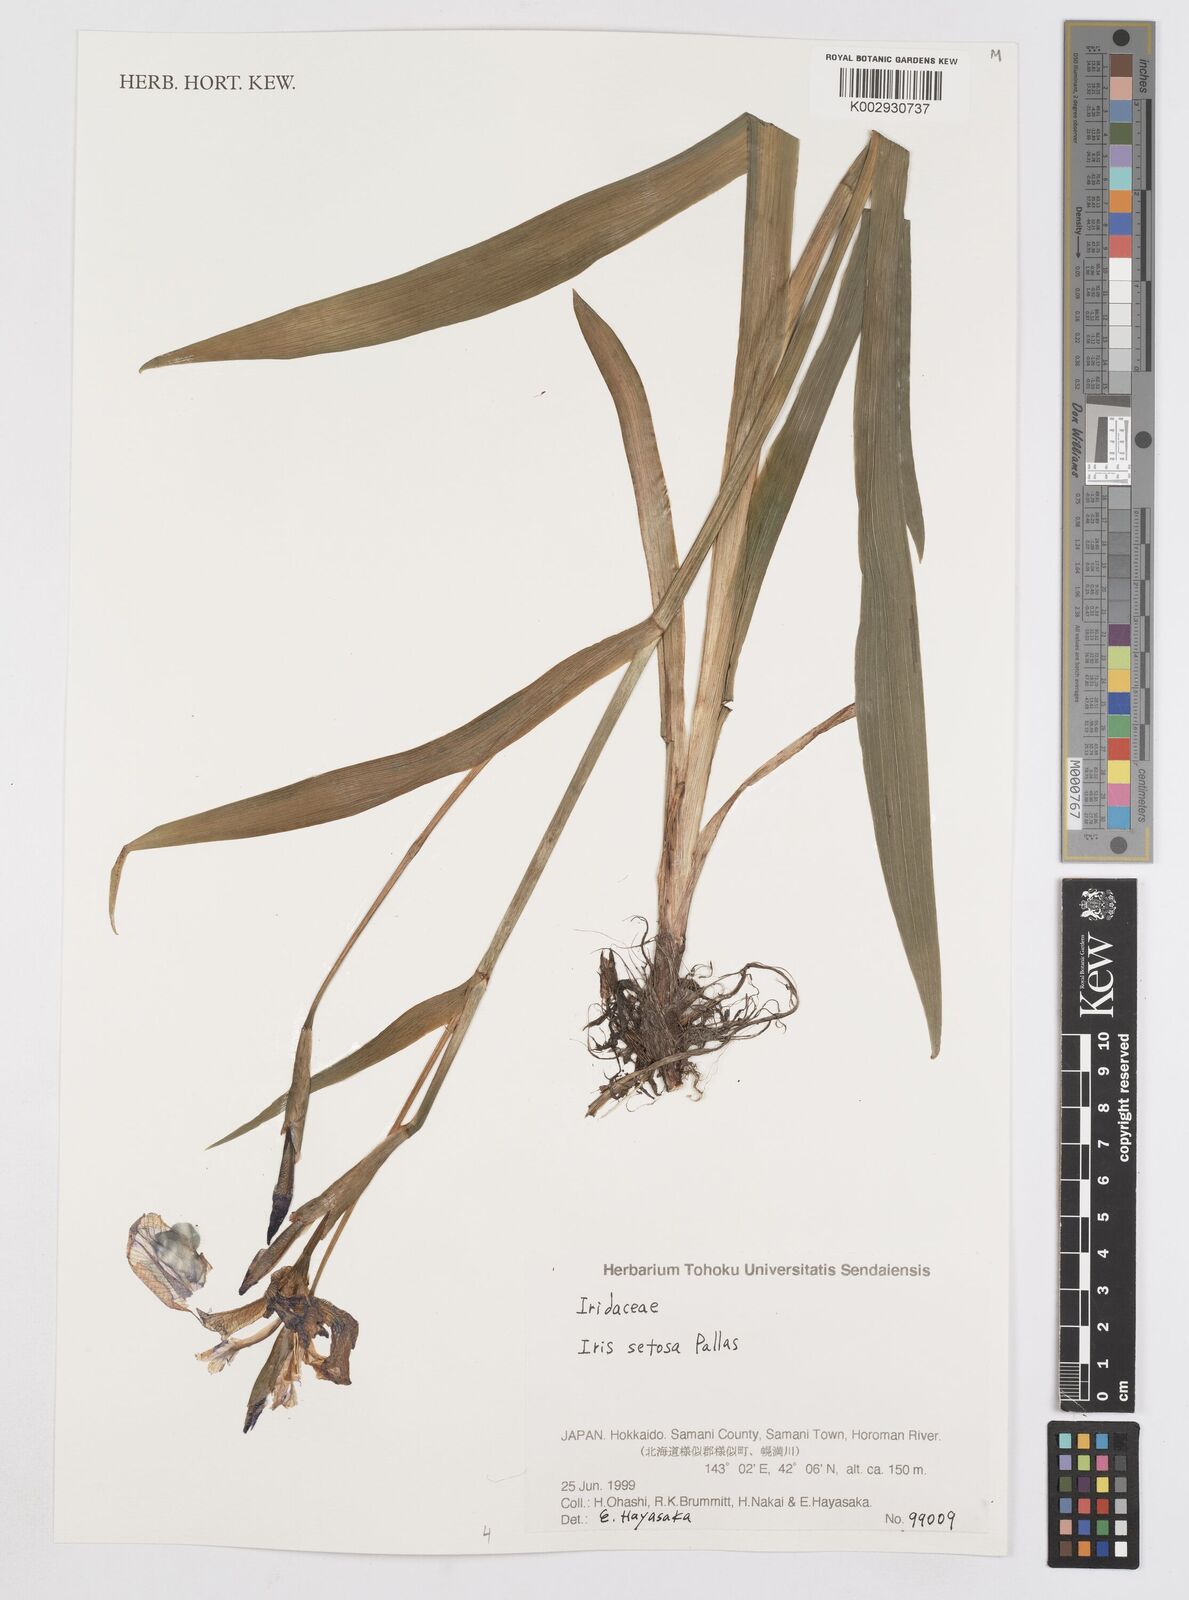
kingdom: Plantae
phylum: Tracheophyta
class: Liliopsida
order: Asparagales
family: Iridaceae
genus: Iris
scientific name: Iris setosa
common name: Arctic blue flag
